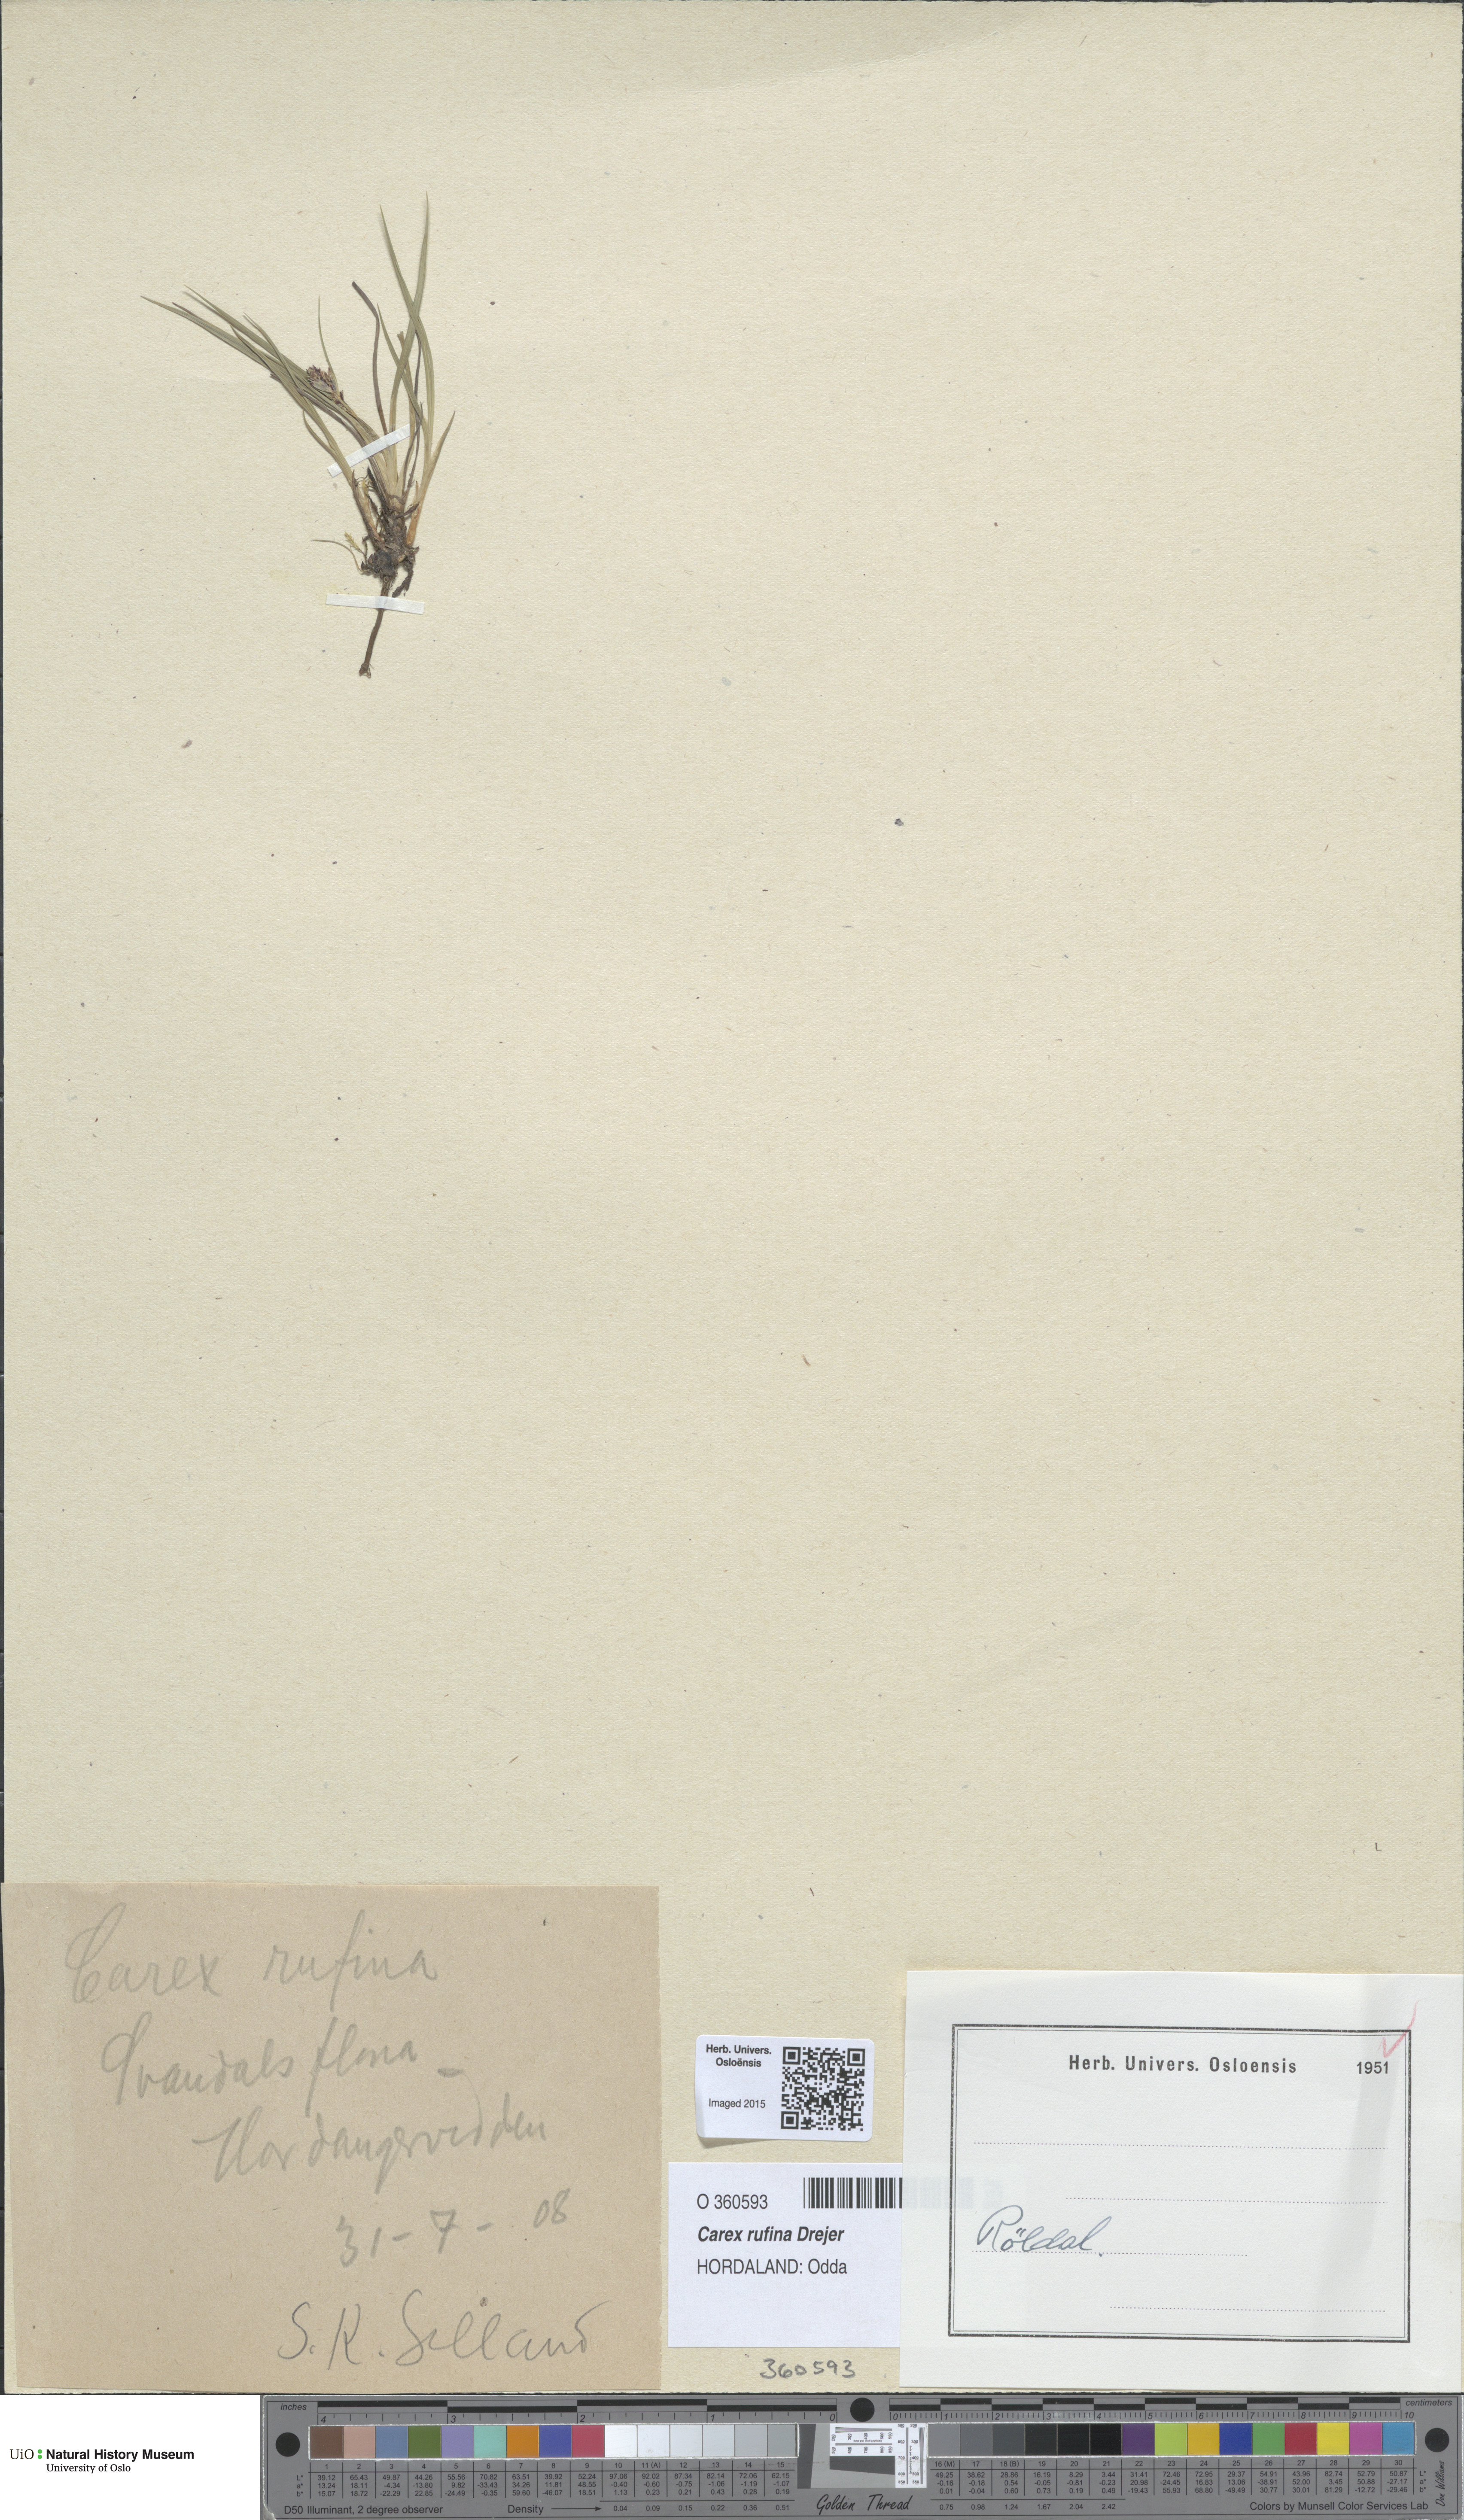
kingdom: Plantae
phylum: Tracheophyta
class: Liliopsida
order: Poales
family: Cyperaceae
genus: Carex
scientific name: Carex rufina
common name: Reddish sedge
